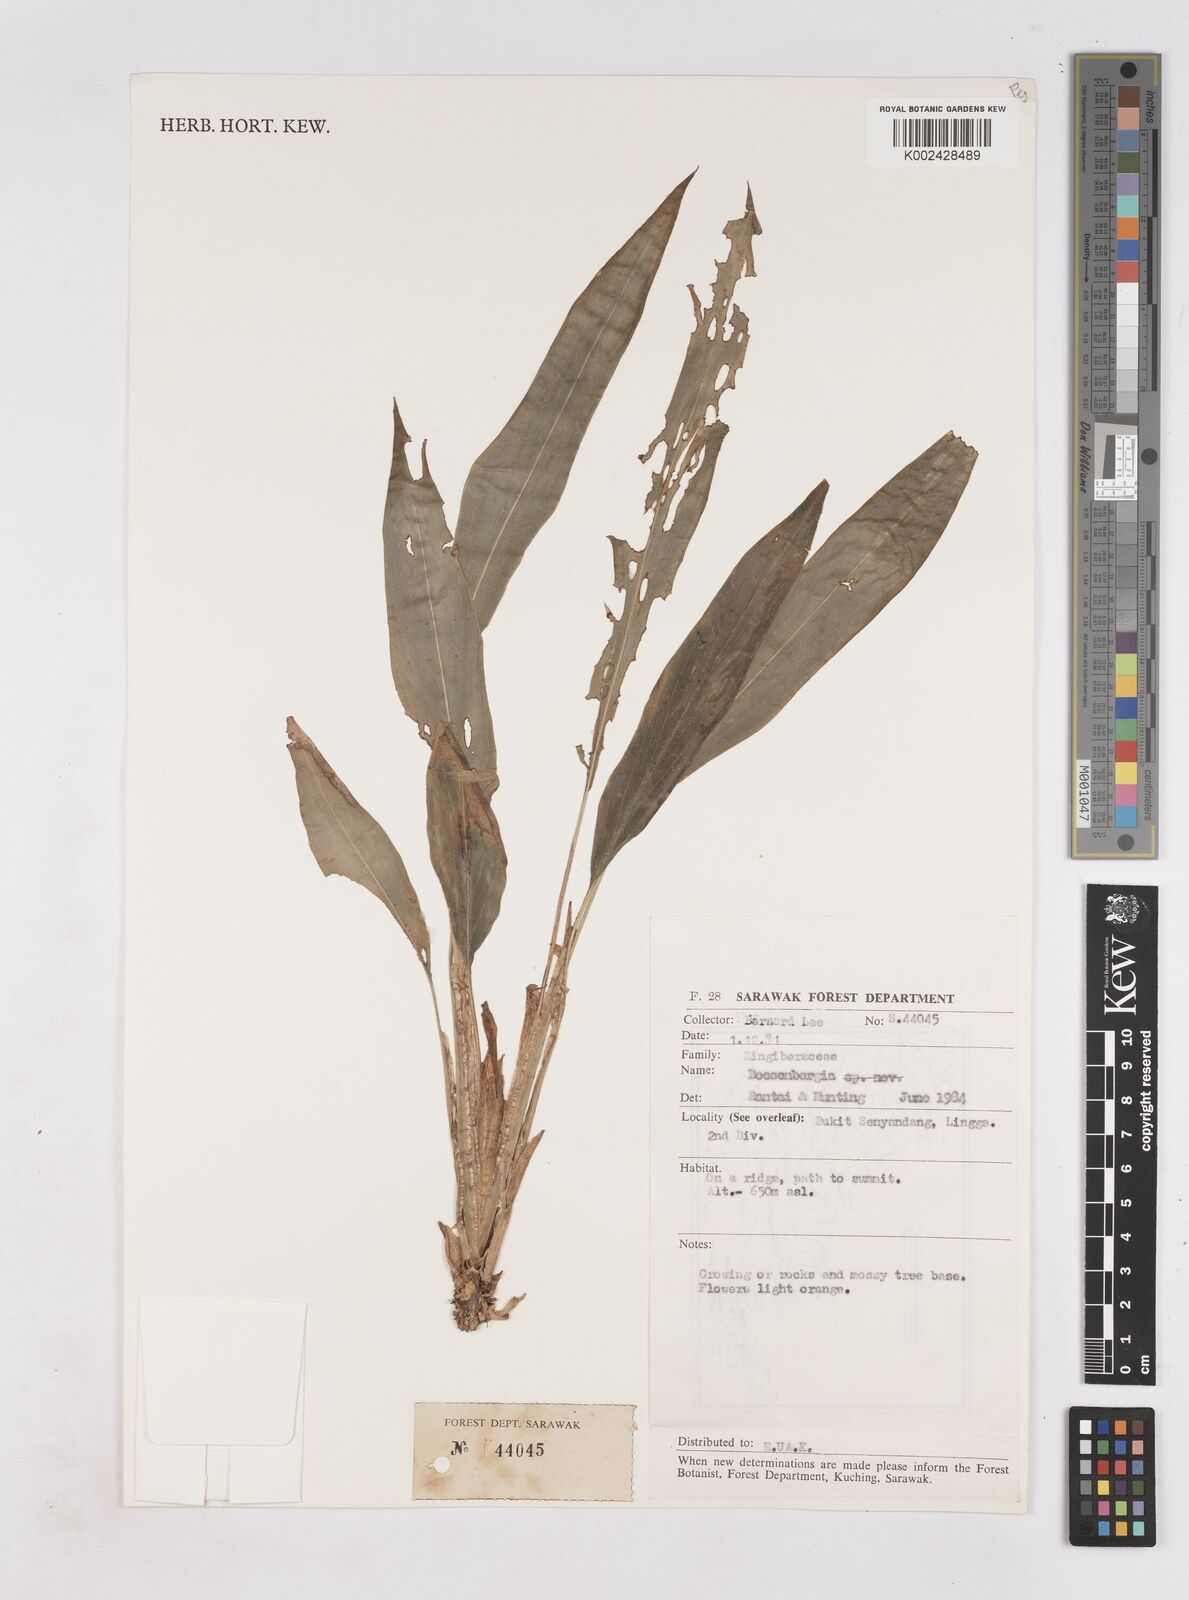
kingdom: Plantae
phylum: Tracheophyta
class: Liliopsida
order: Zingiberales
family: Zingiberaceae
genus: Boesenbergia
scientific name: Boesenbergia
